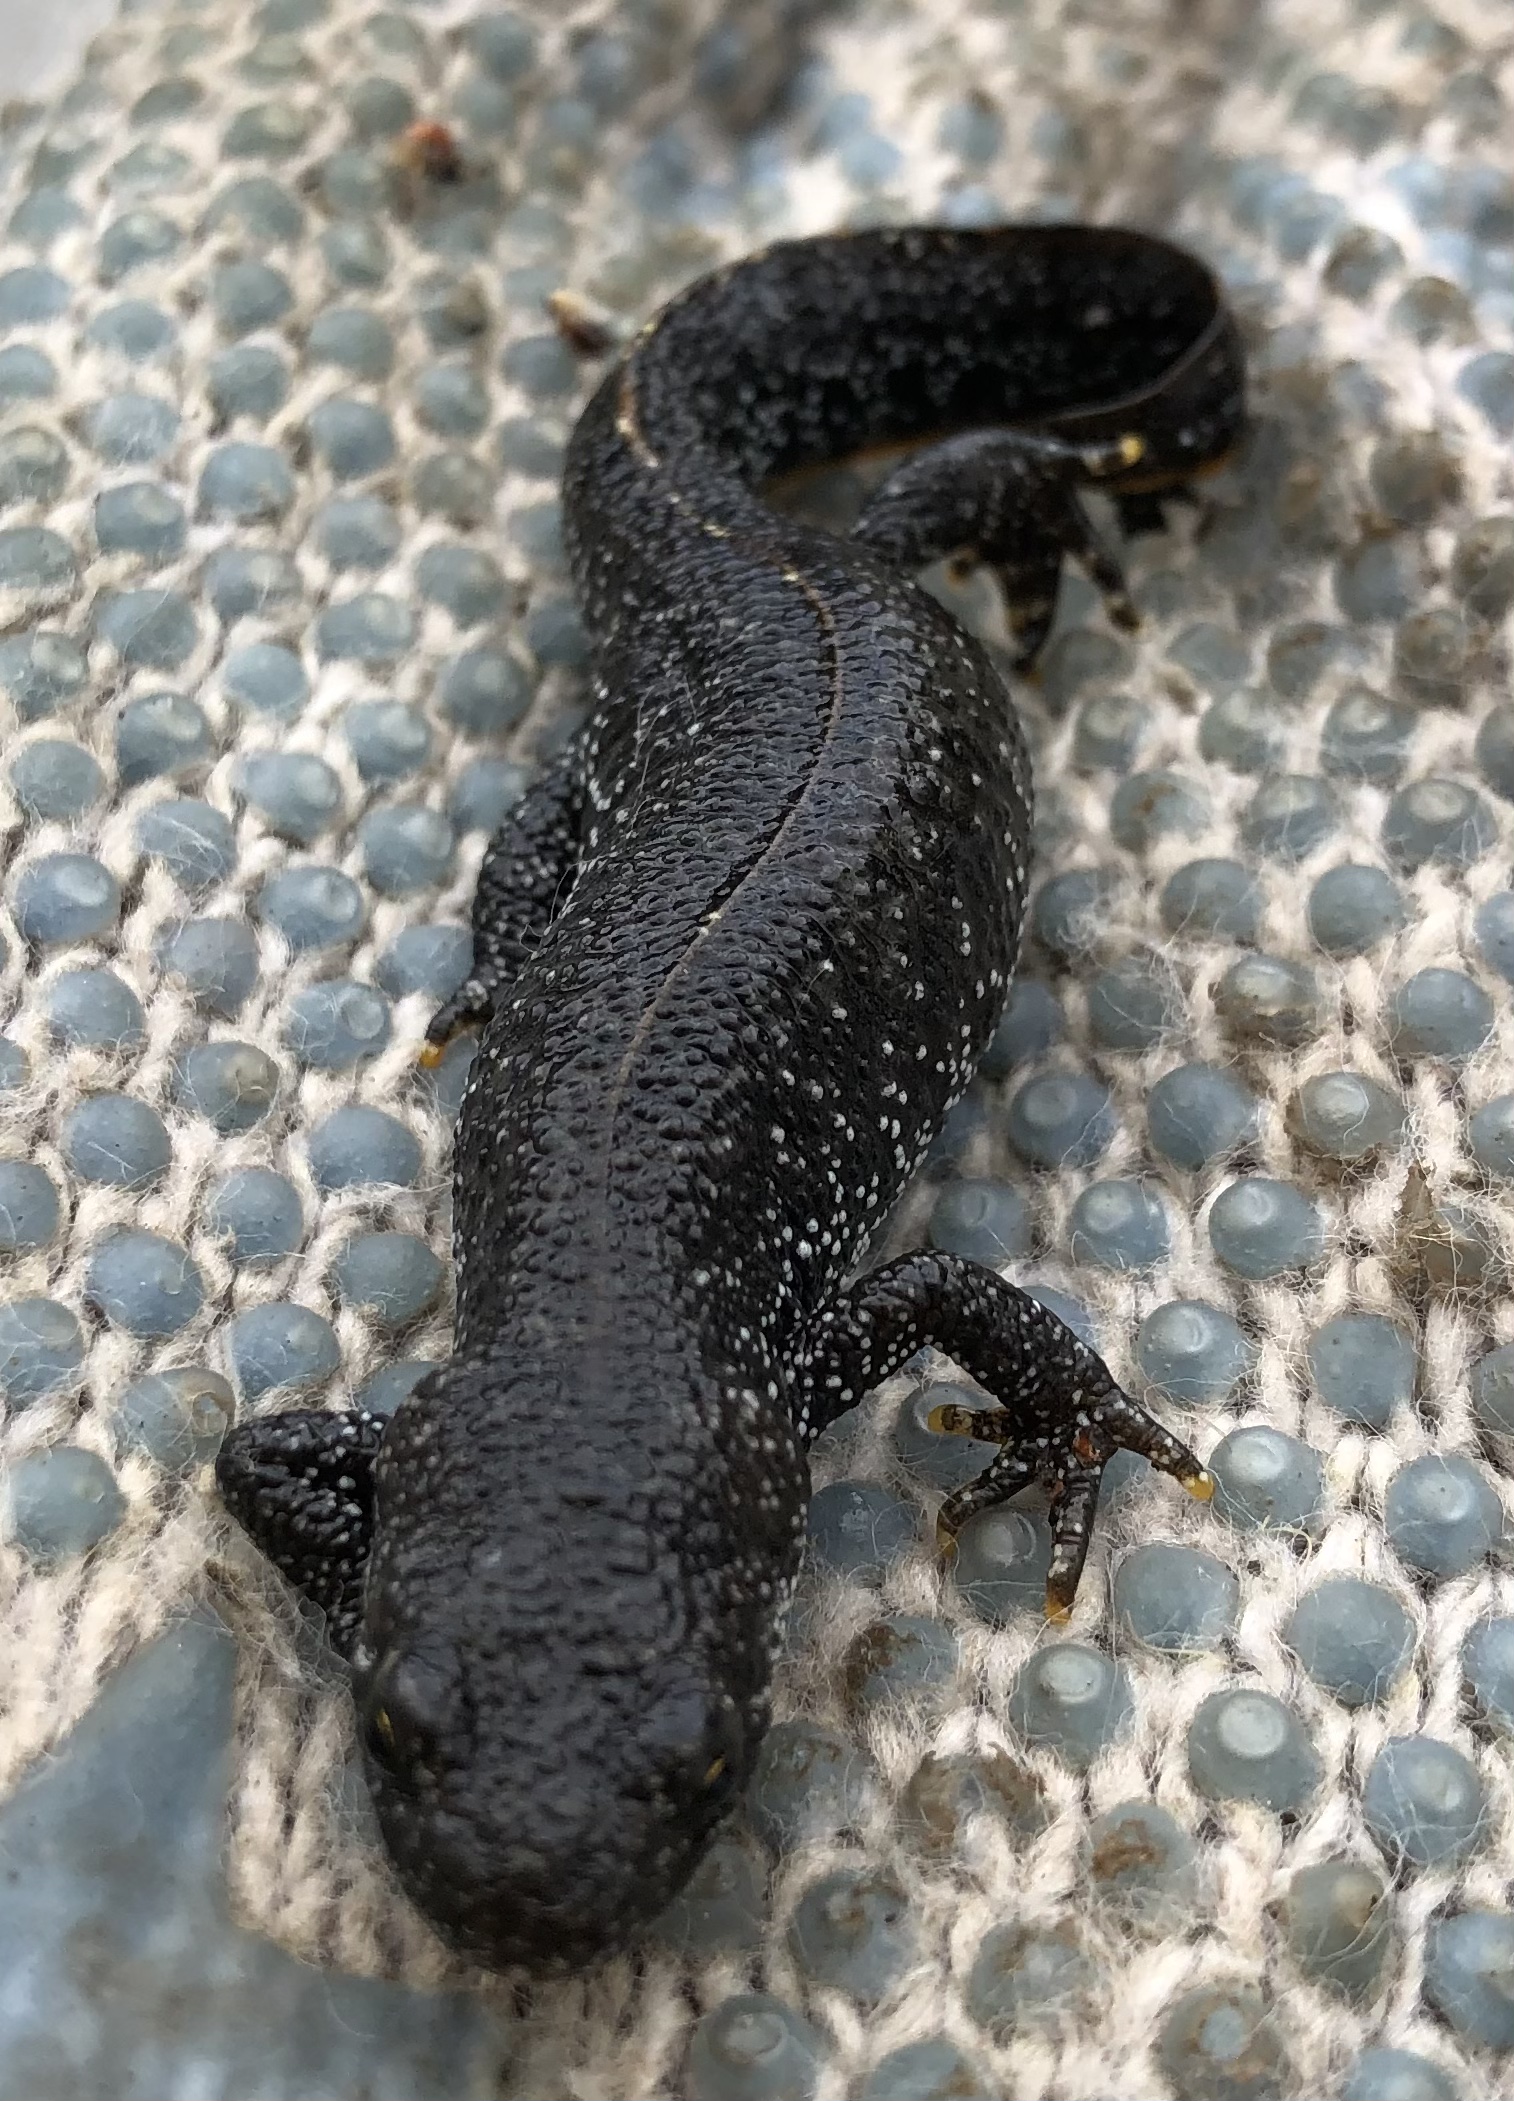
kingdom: Animalia
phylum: Chordata
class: Amphibia
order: Caudata
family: Salamandridae
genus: Triturus
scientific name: Triturus cristatus
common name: Stor vandsalamander
